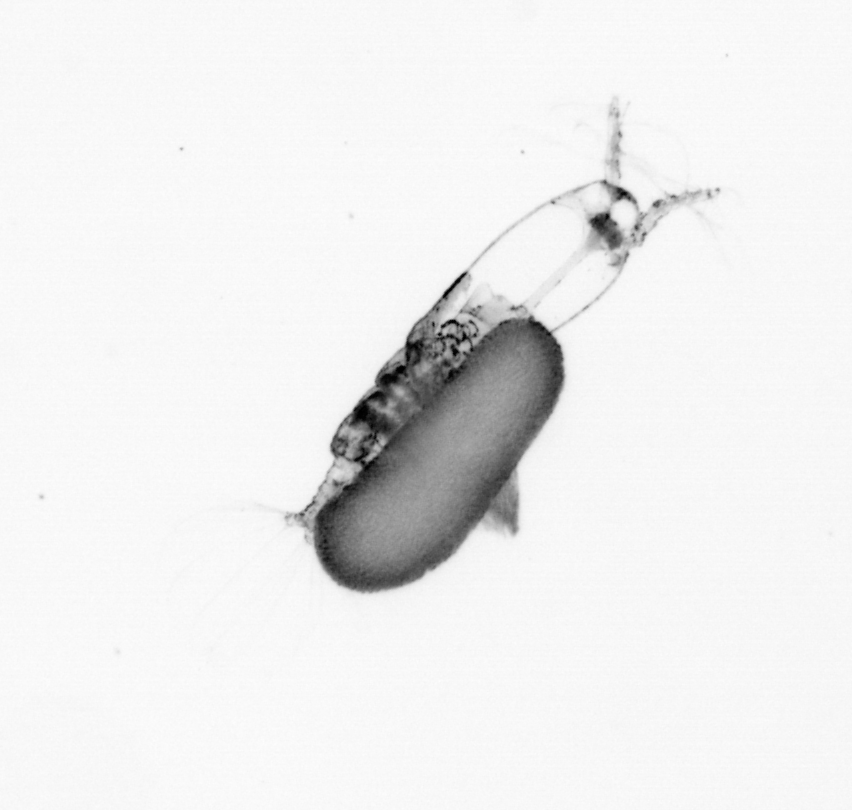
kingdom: Animalia
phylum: Arthropoda
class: Copepoda
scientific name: Copepoda
